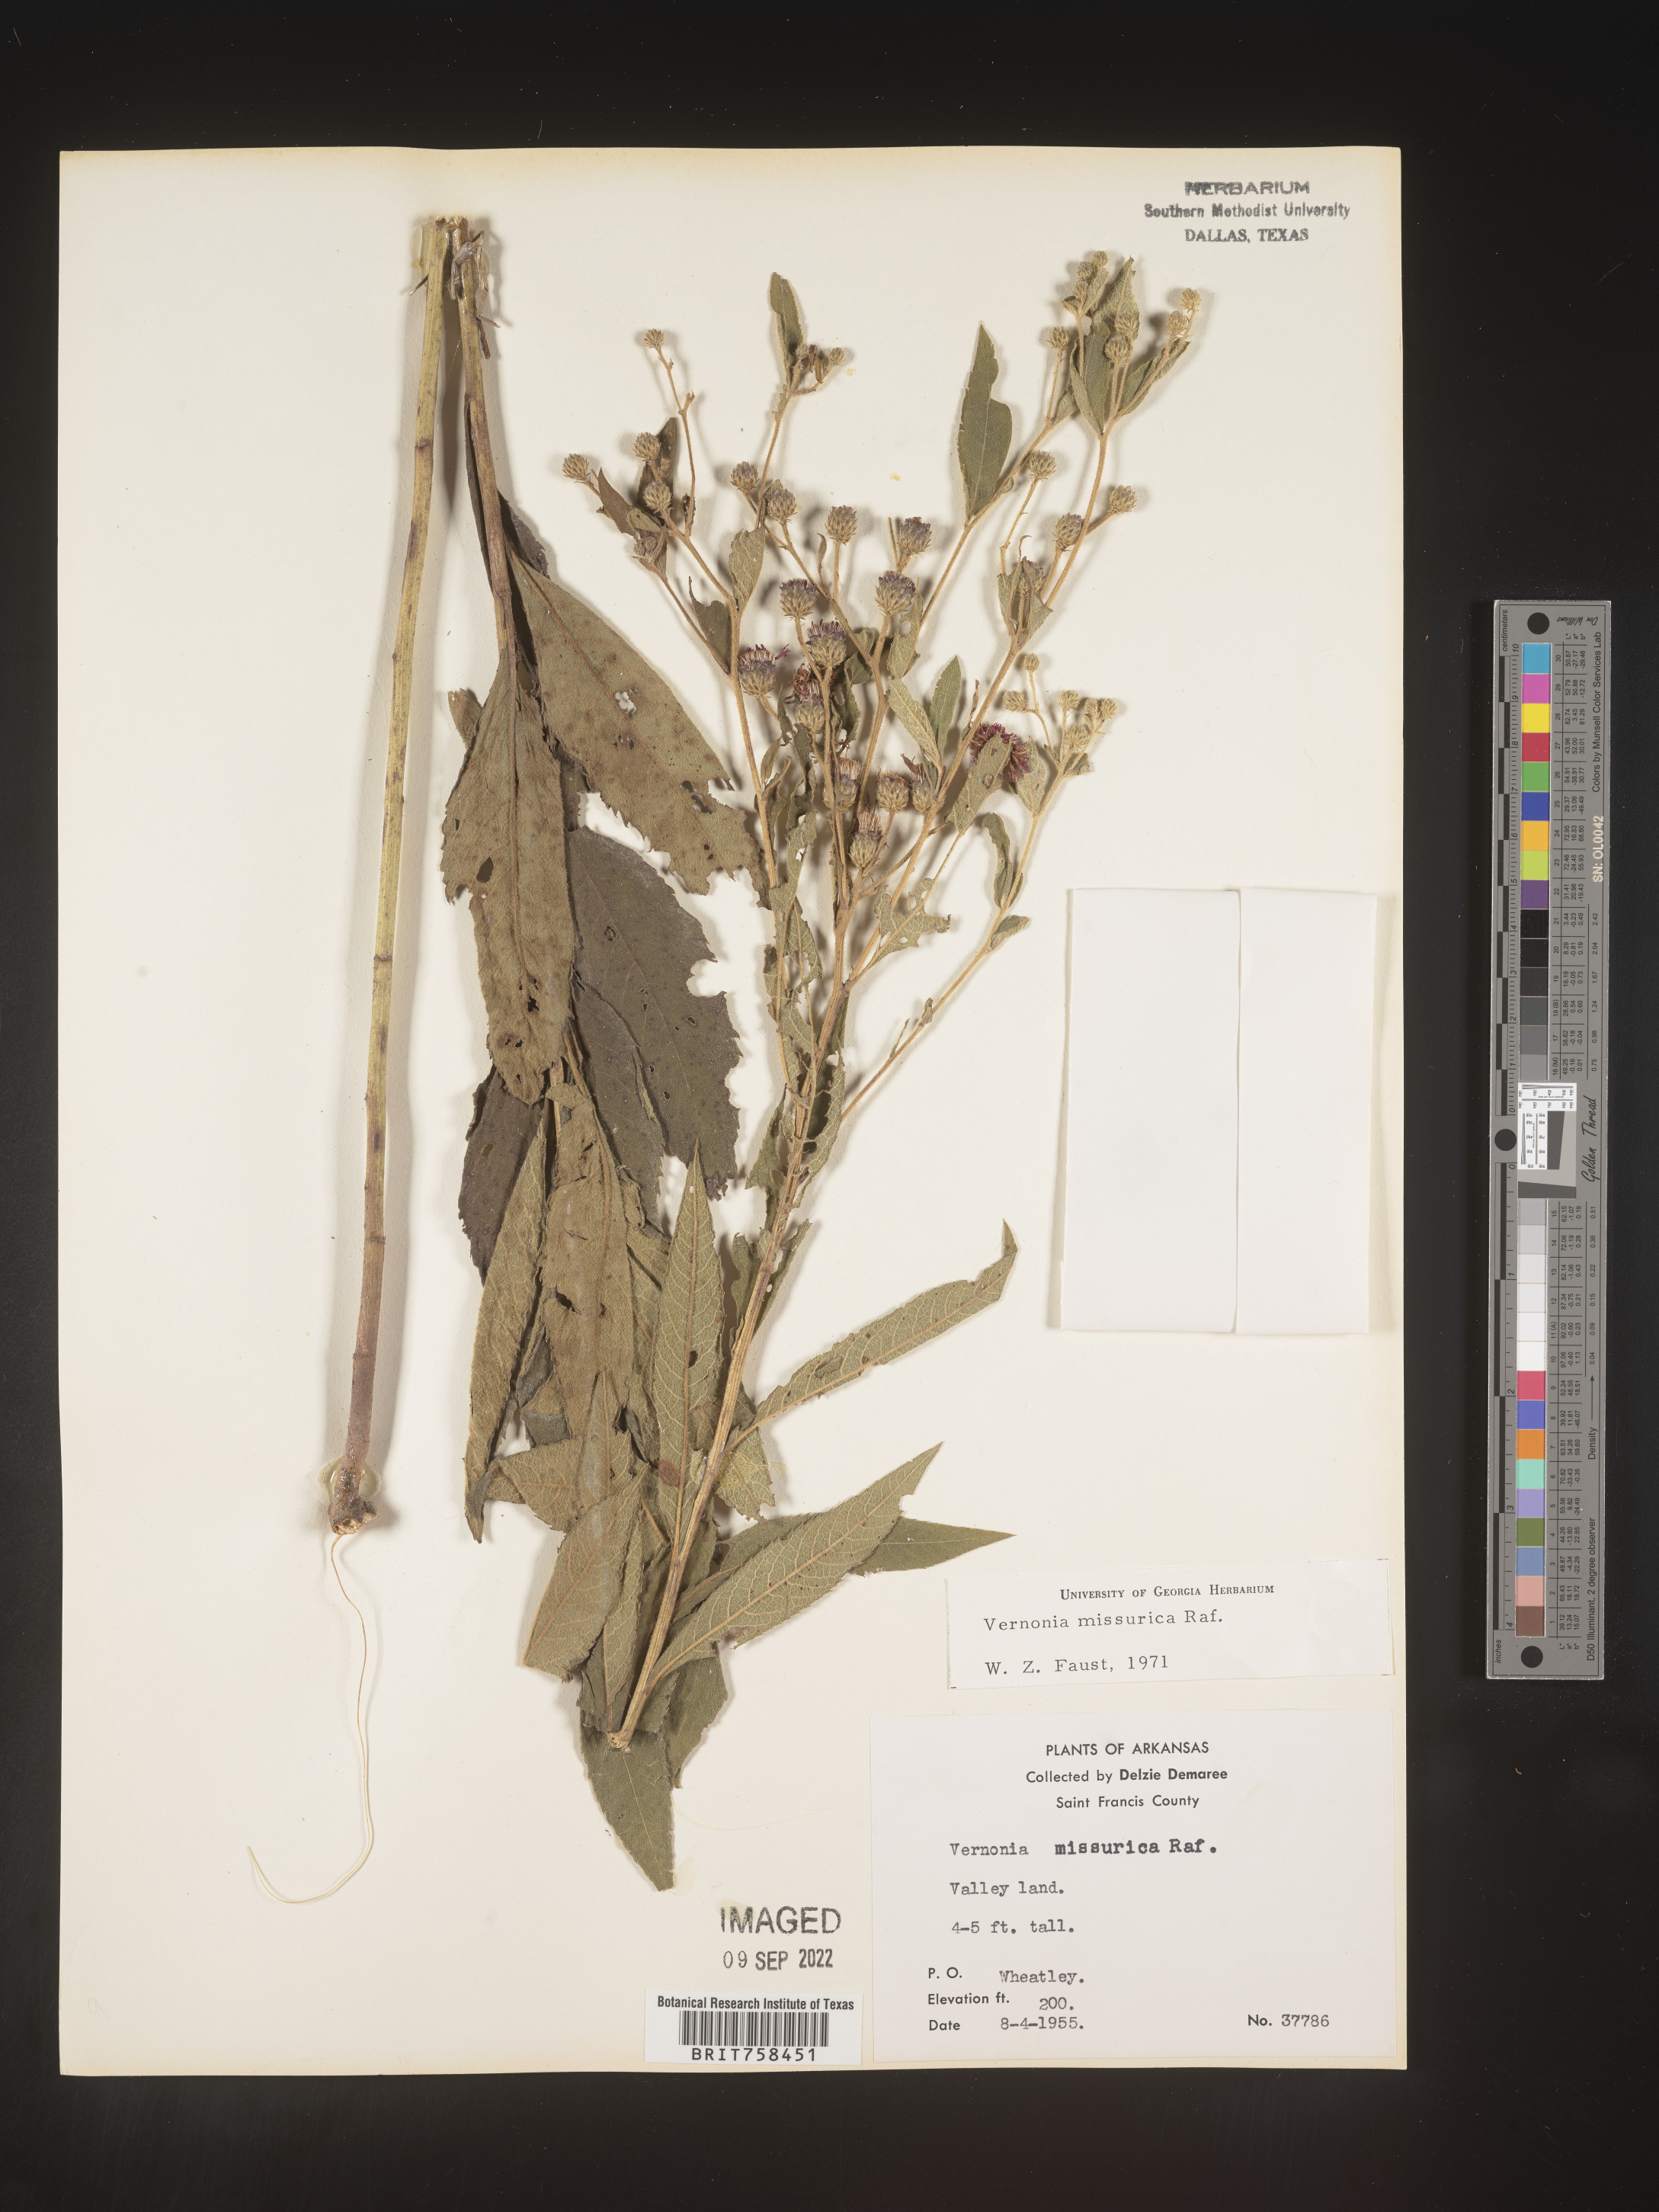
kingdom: Plantae
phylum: Tracheophyta
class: Magnoliopsida
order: Asterales
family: Asteraceae
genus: Vernonia
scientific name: Vernonia missurica
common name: Missouri ironweed
